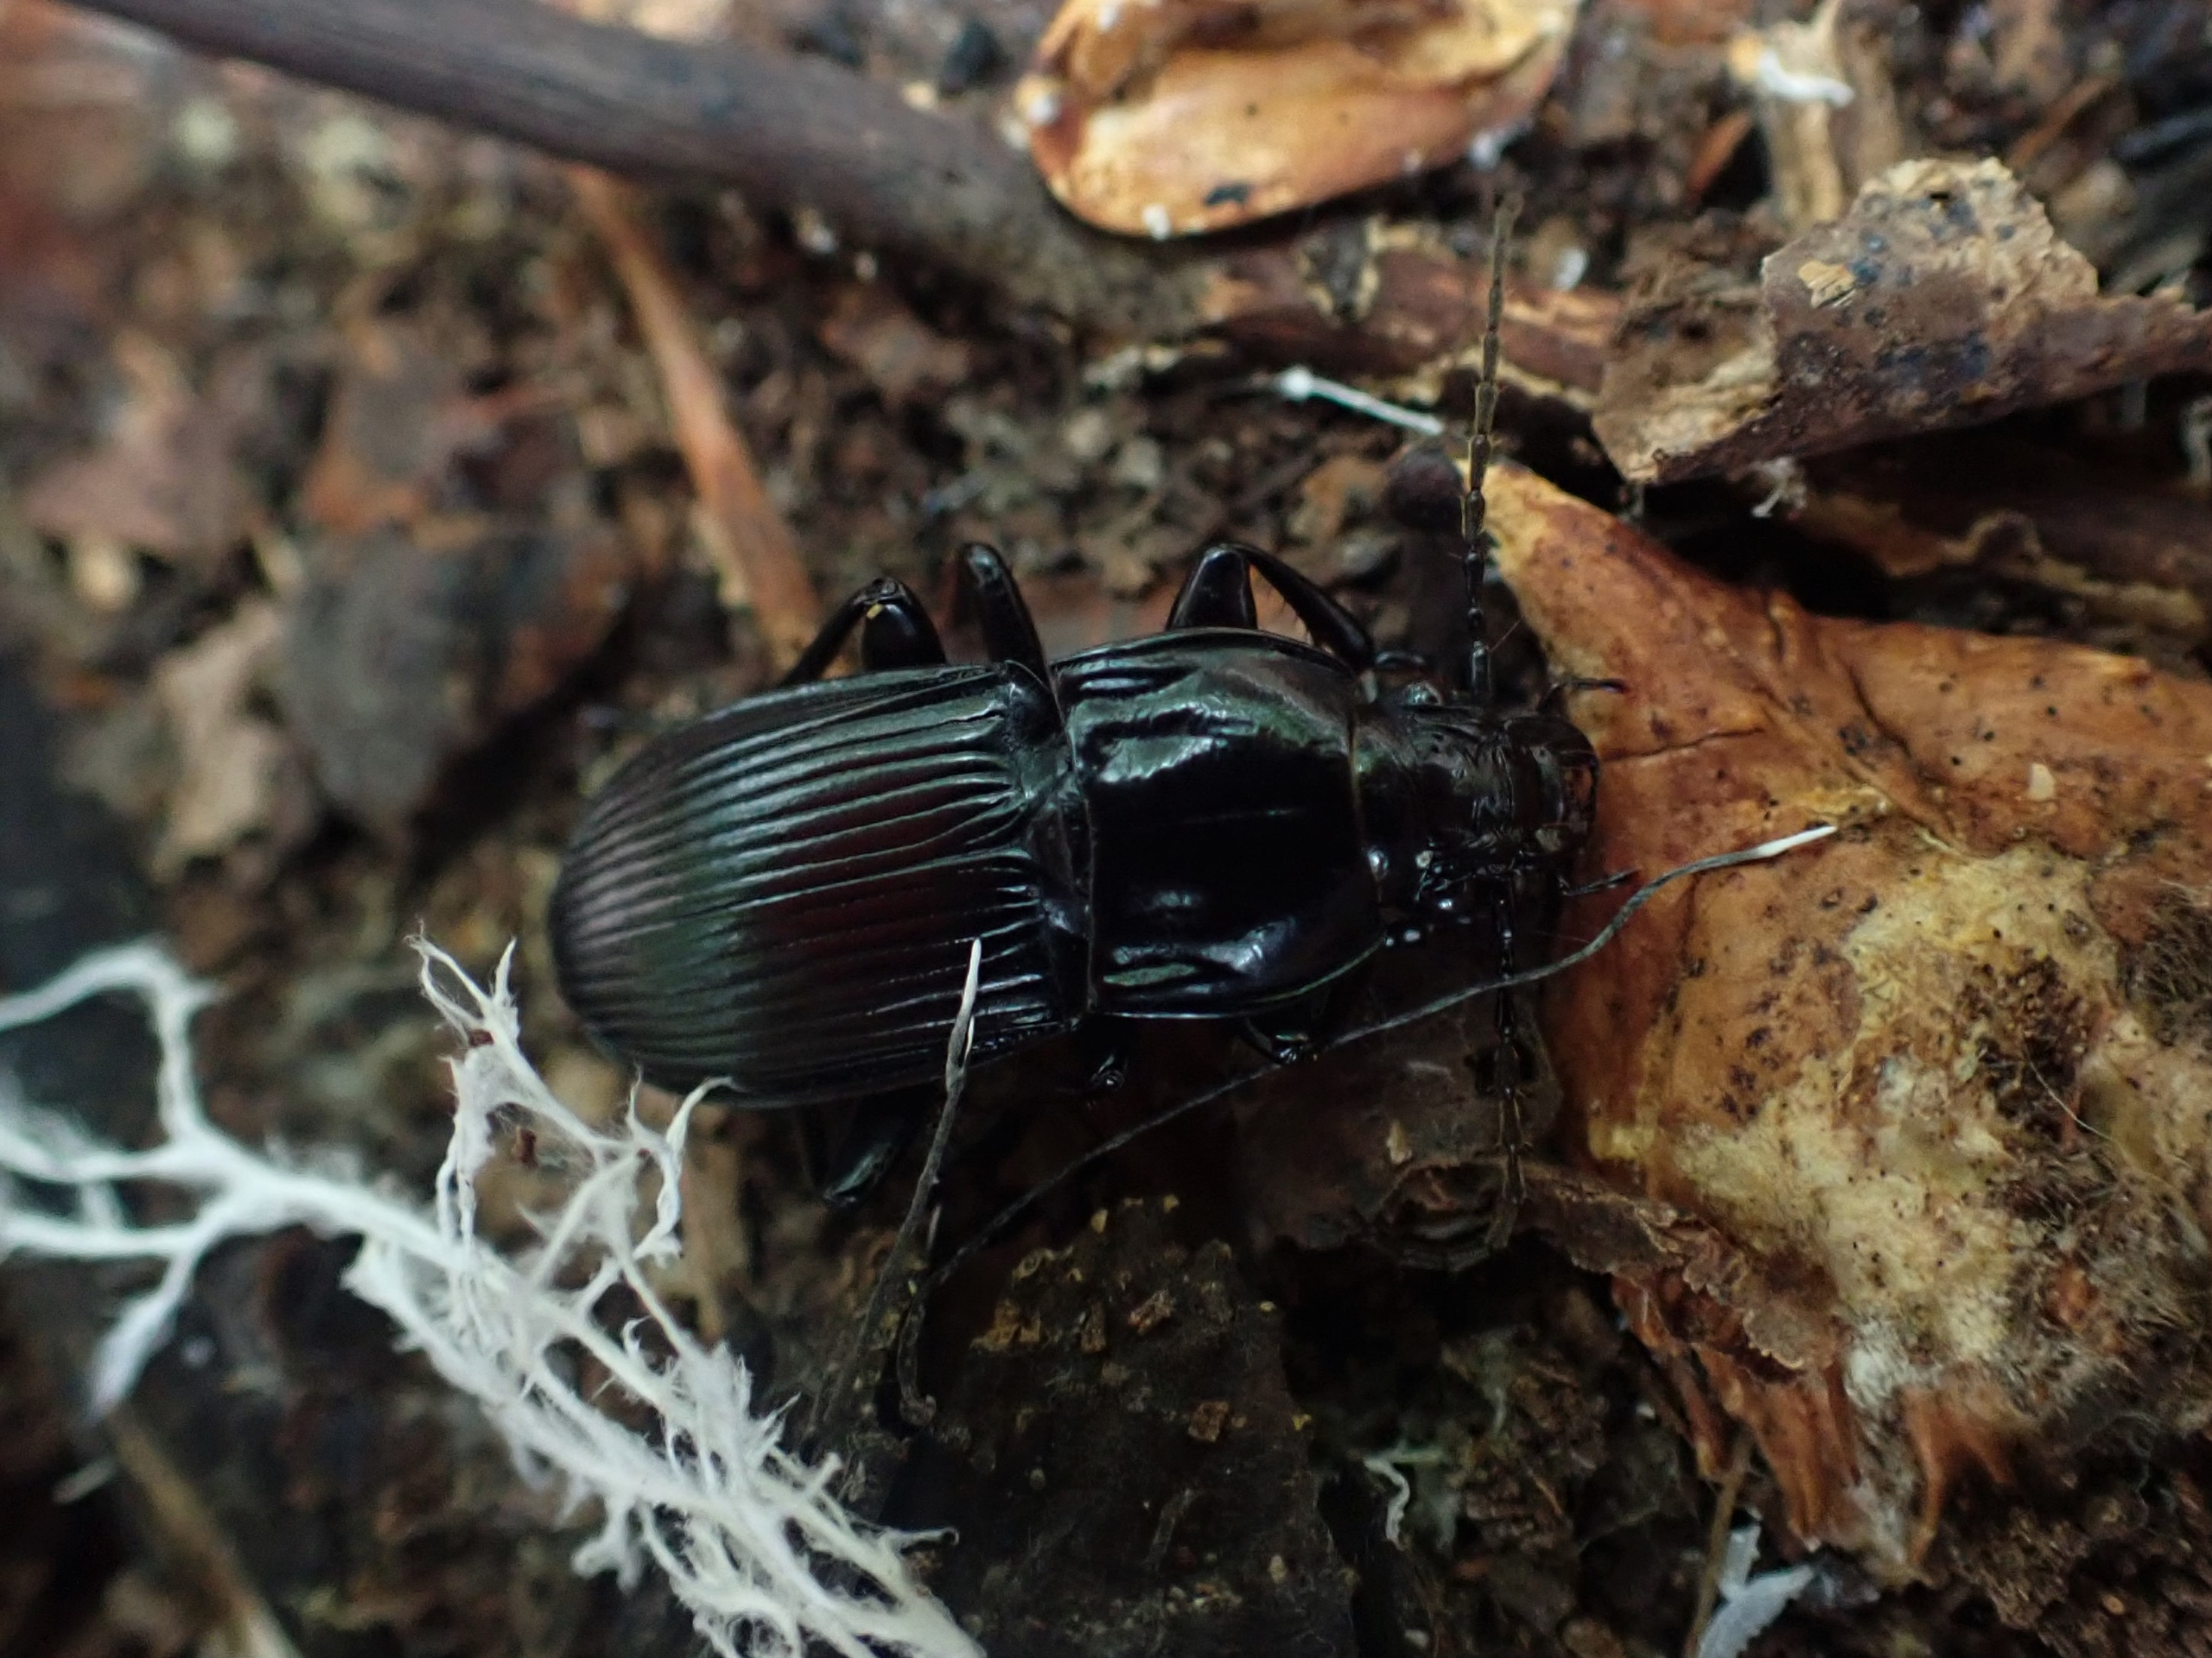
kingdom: Animalia
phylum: Arthropoda
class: Insecta
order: Coleoptera
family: Carabidae
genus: Abax
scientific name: Abax parallelepipedus
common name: Bred muldløber
